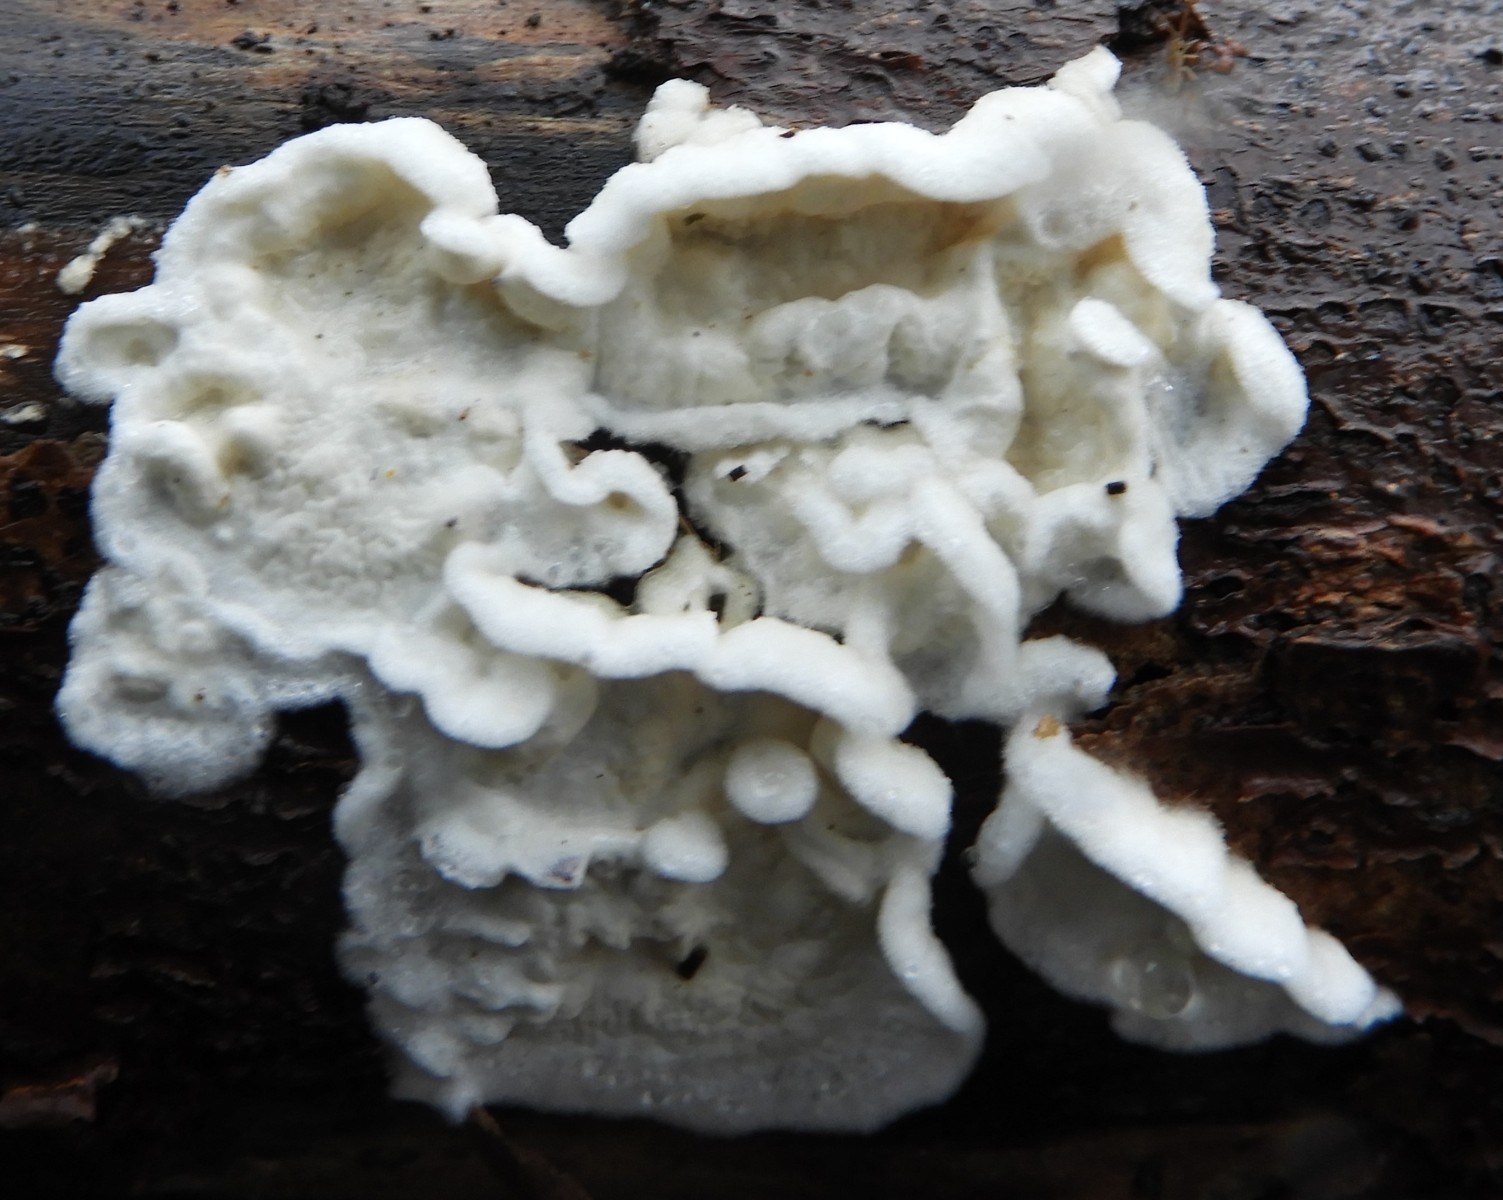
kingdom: Fungi
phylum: Basidiomycota
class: Agaricomycetes
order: Polyporales
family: Irpicaceae
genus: Byssomerulius
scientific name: Byssomerulius corium
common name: læder-åresvamp
